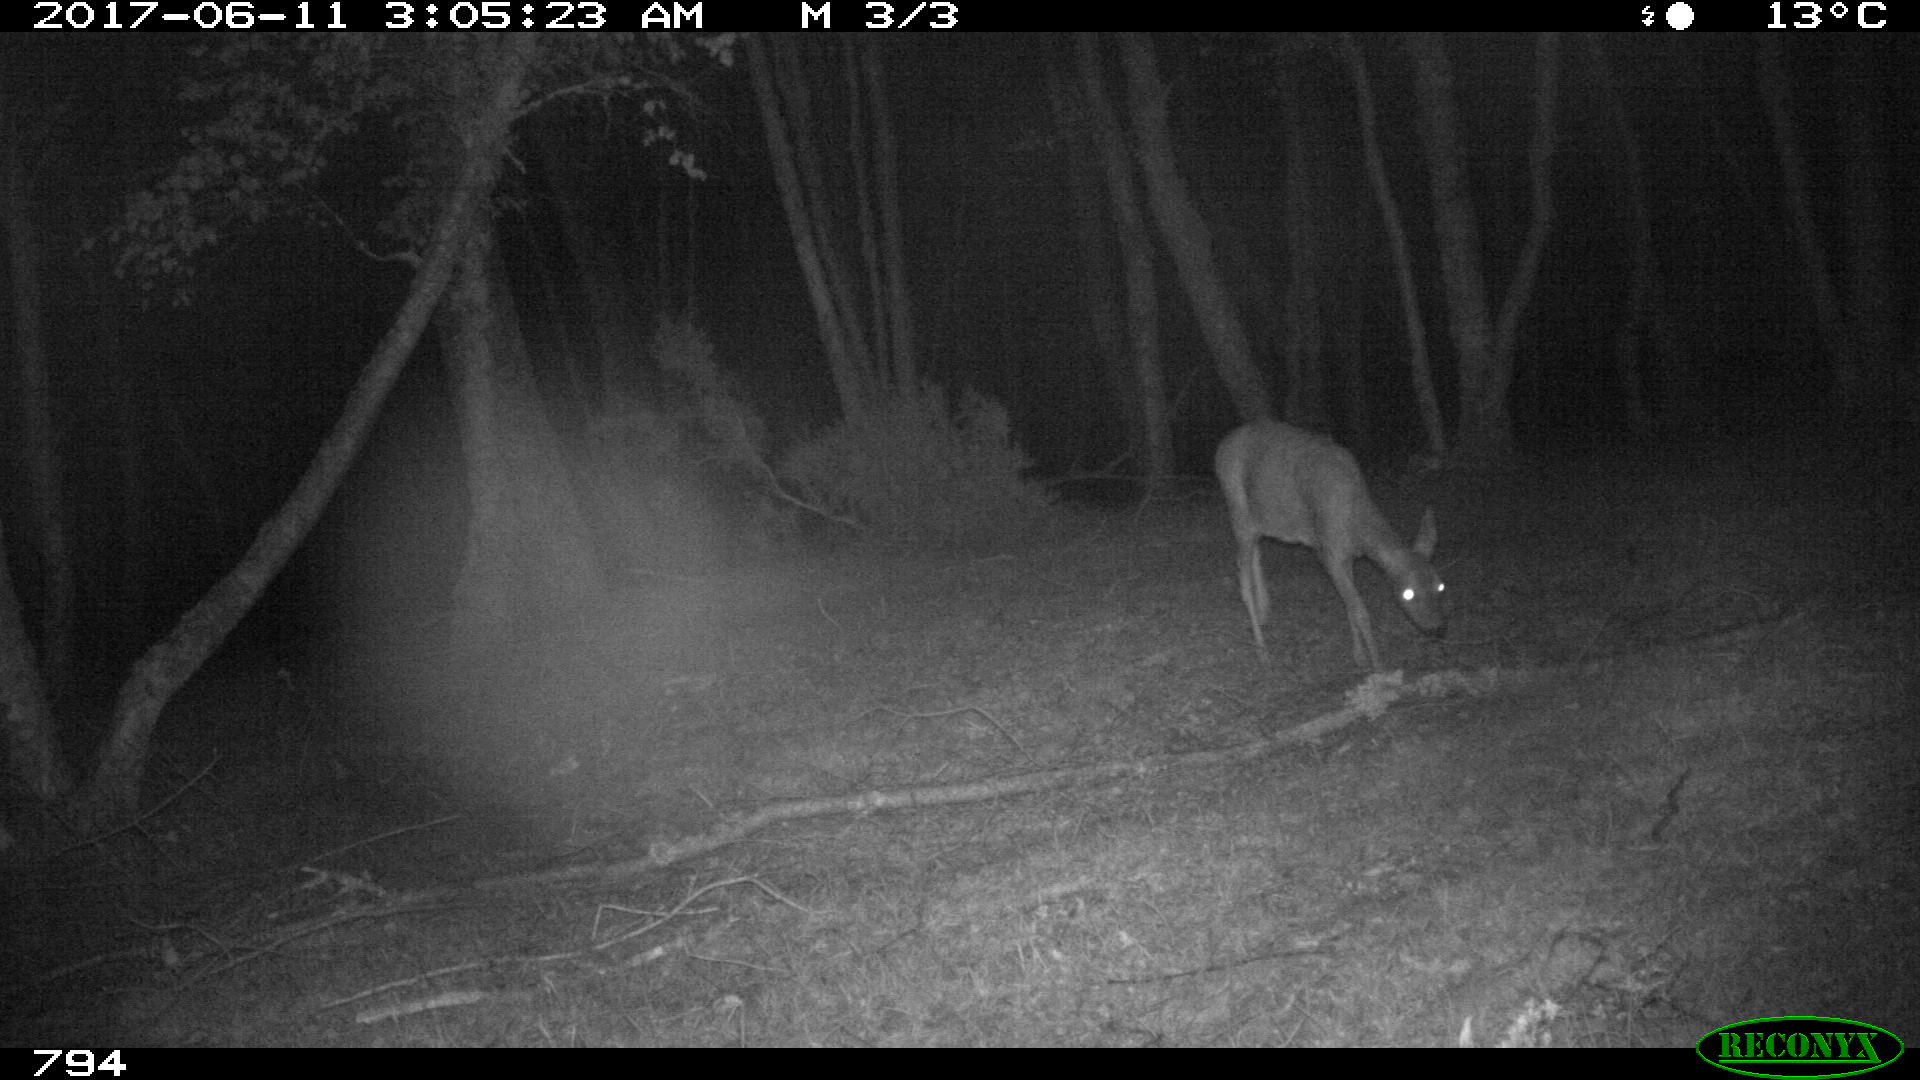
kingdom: Animalia
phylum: Chordata
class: Mammalia
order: Artiodactyla
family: Cervidae
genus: Capreolus
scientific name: Capreolus capreolus
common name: Western roe deer
